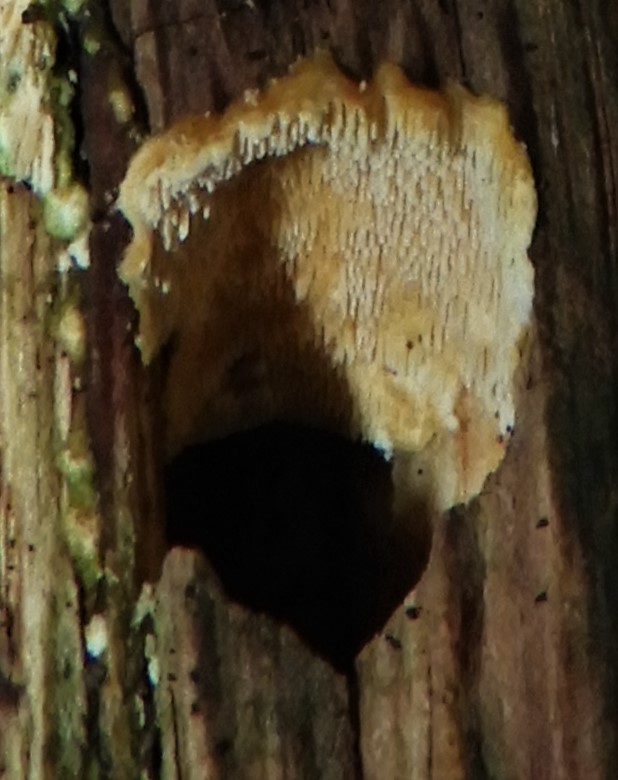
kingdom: Fungi
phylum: Basidiomycota
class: Agaricomycetes
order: Polyporales
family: Steccherinaceae
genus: Steccherinum
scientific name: Steccherinum bourdotii
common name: hat-skønpig
